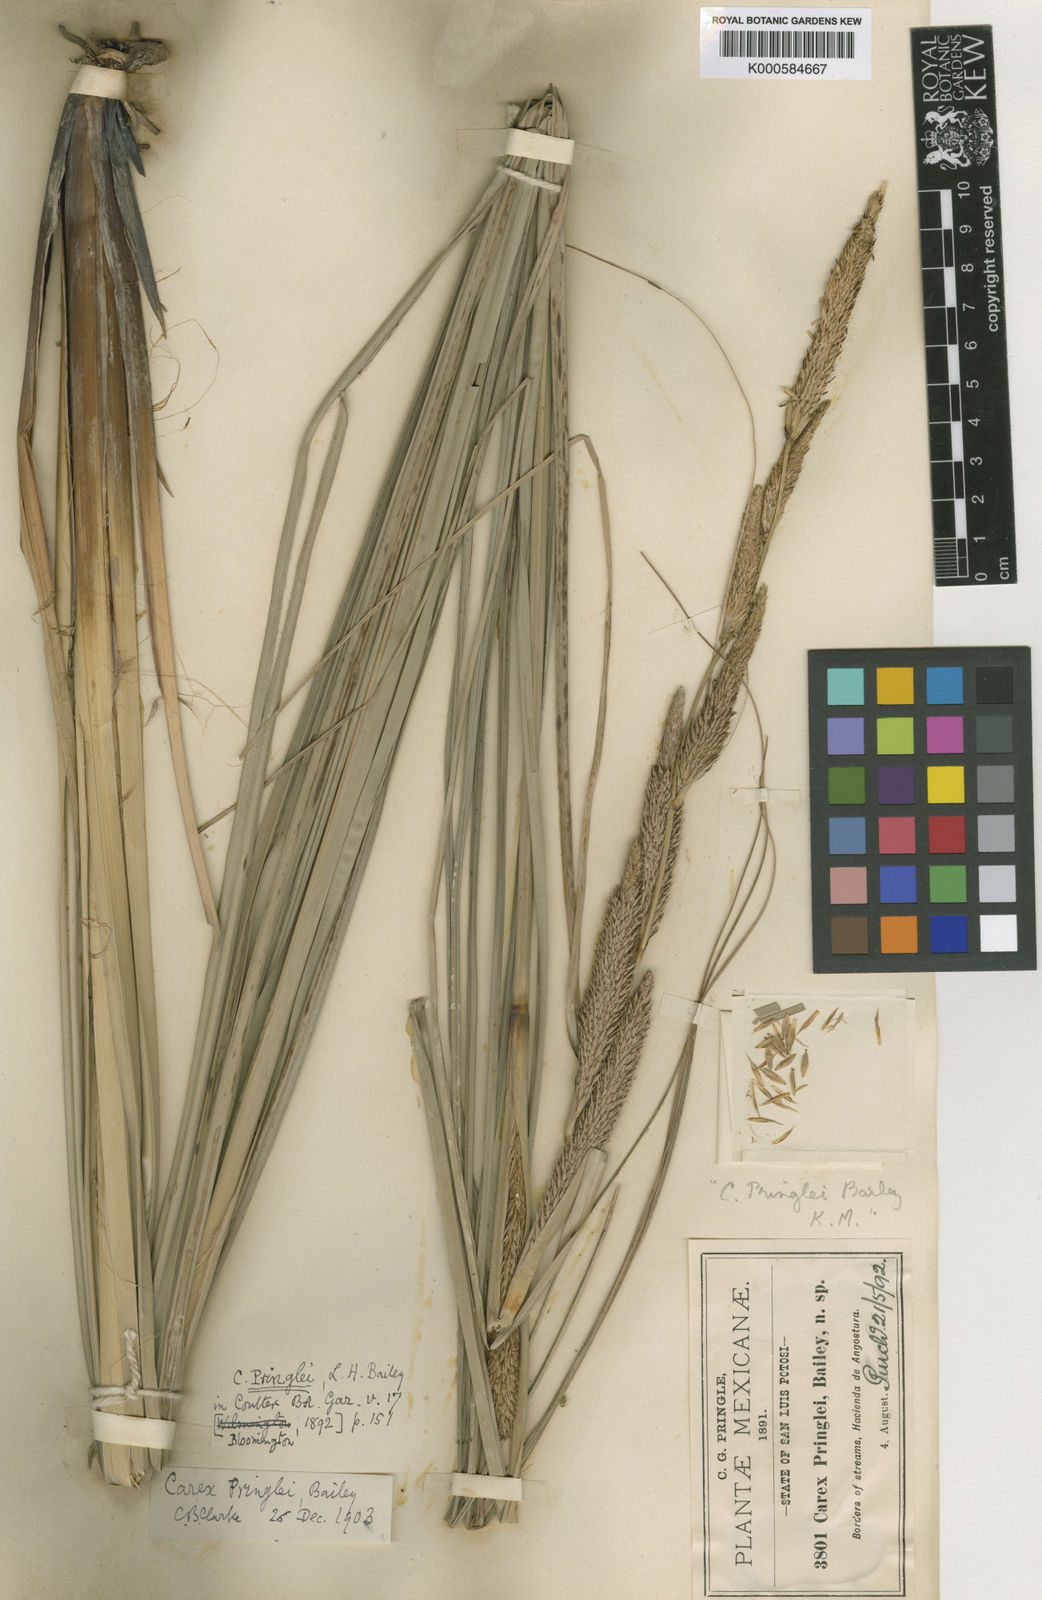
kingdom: Plantae
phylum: Tracheophyta
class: Liliopsida
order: Poales
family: Cyperaceae
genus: Carex
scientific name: Carex pringlei
